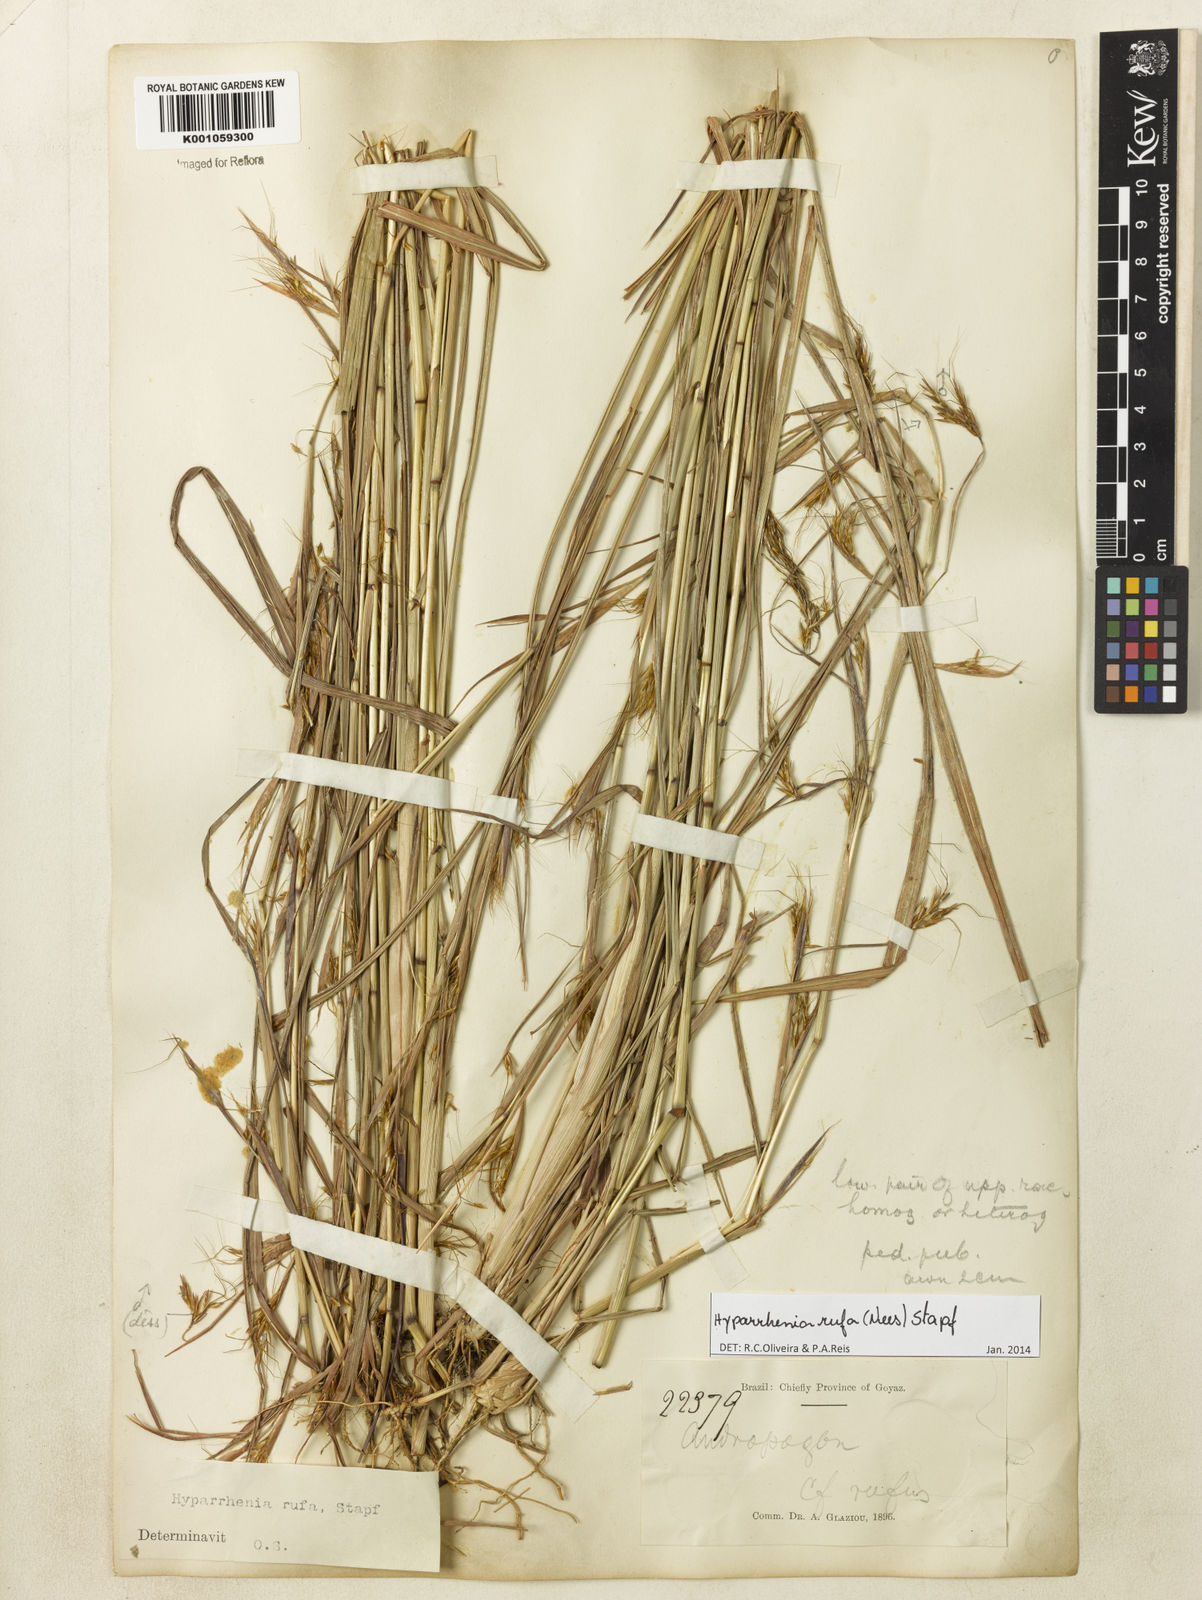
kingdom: Plantae
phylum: Tracheophyta
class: Liliopsida
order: Poales
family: Poaceae
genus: Hyparrhenia
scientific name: Hyparrhenia rufa
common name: Jaraguagrass
